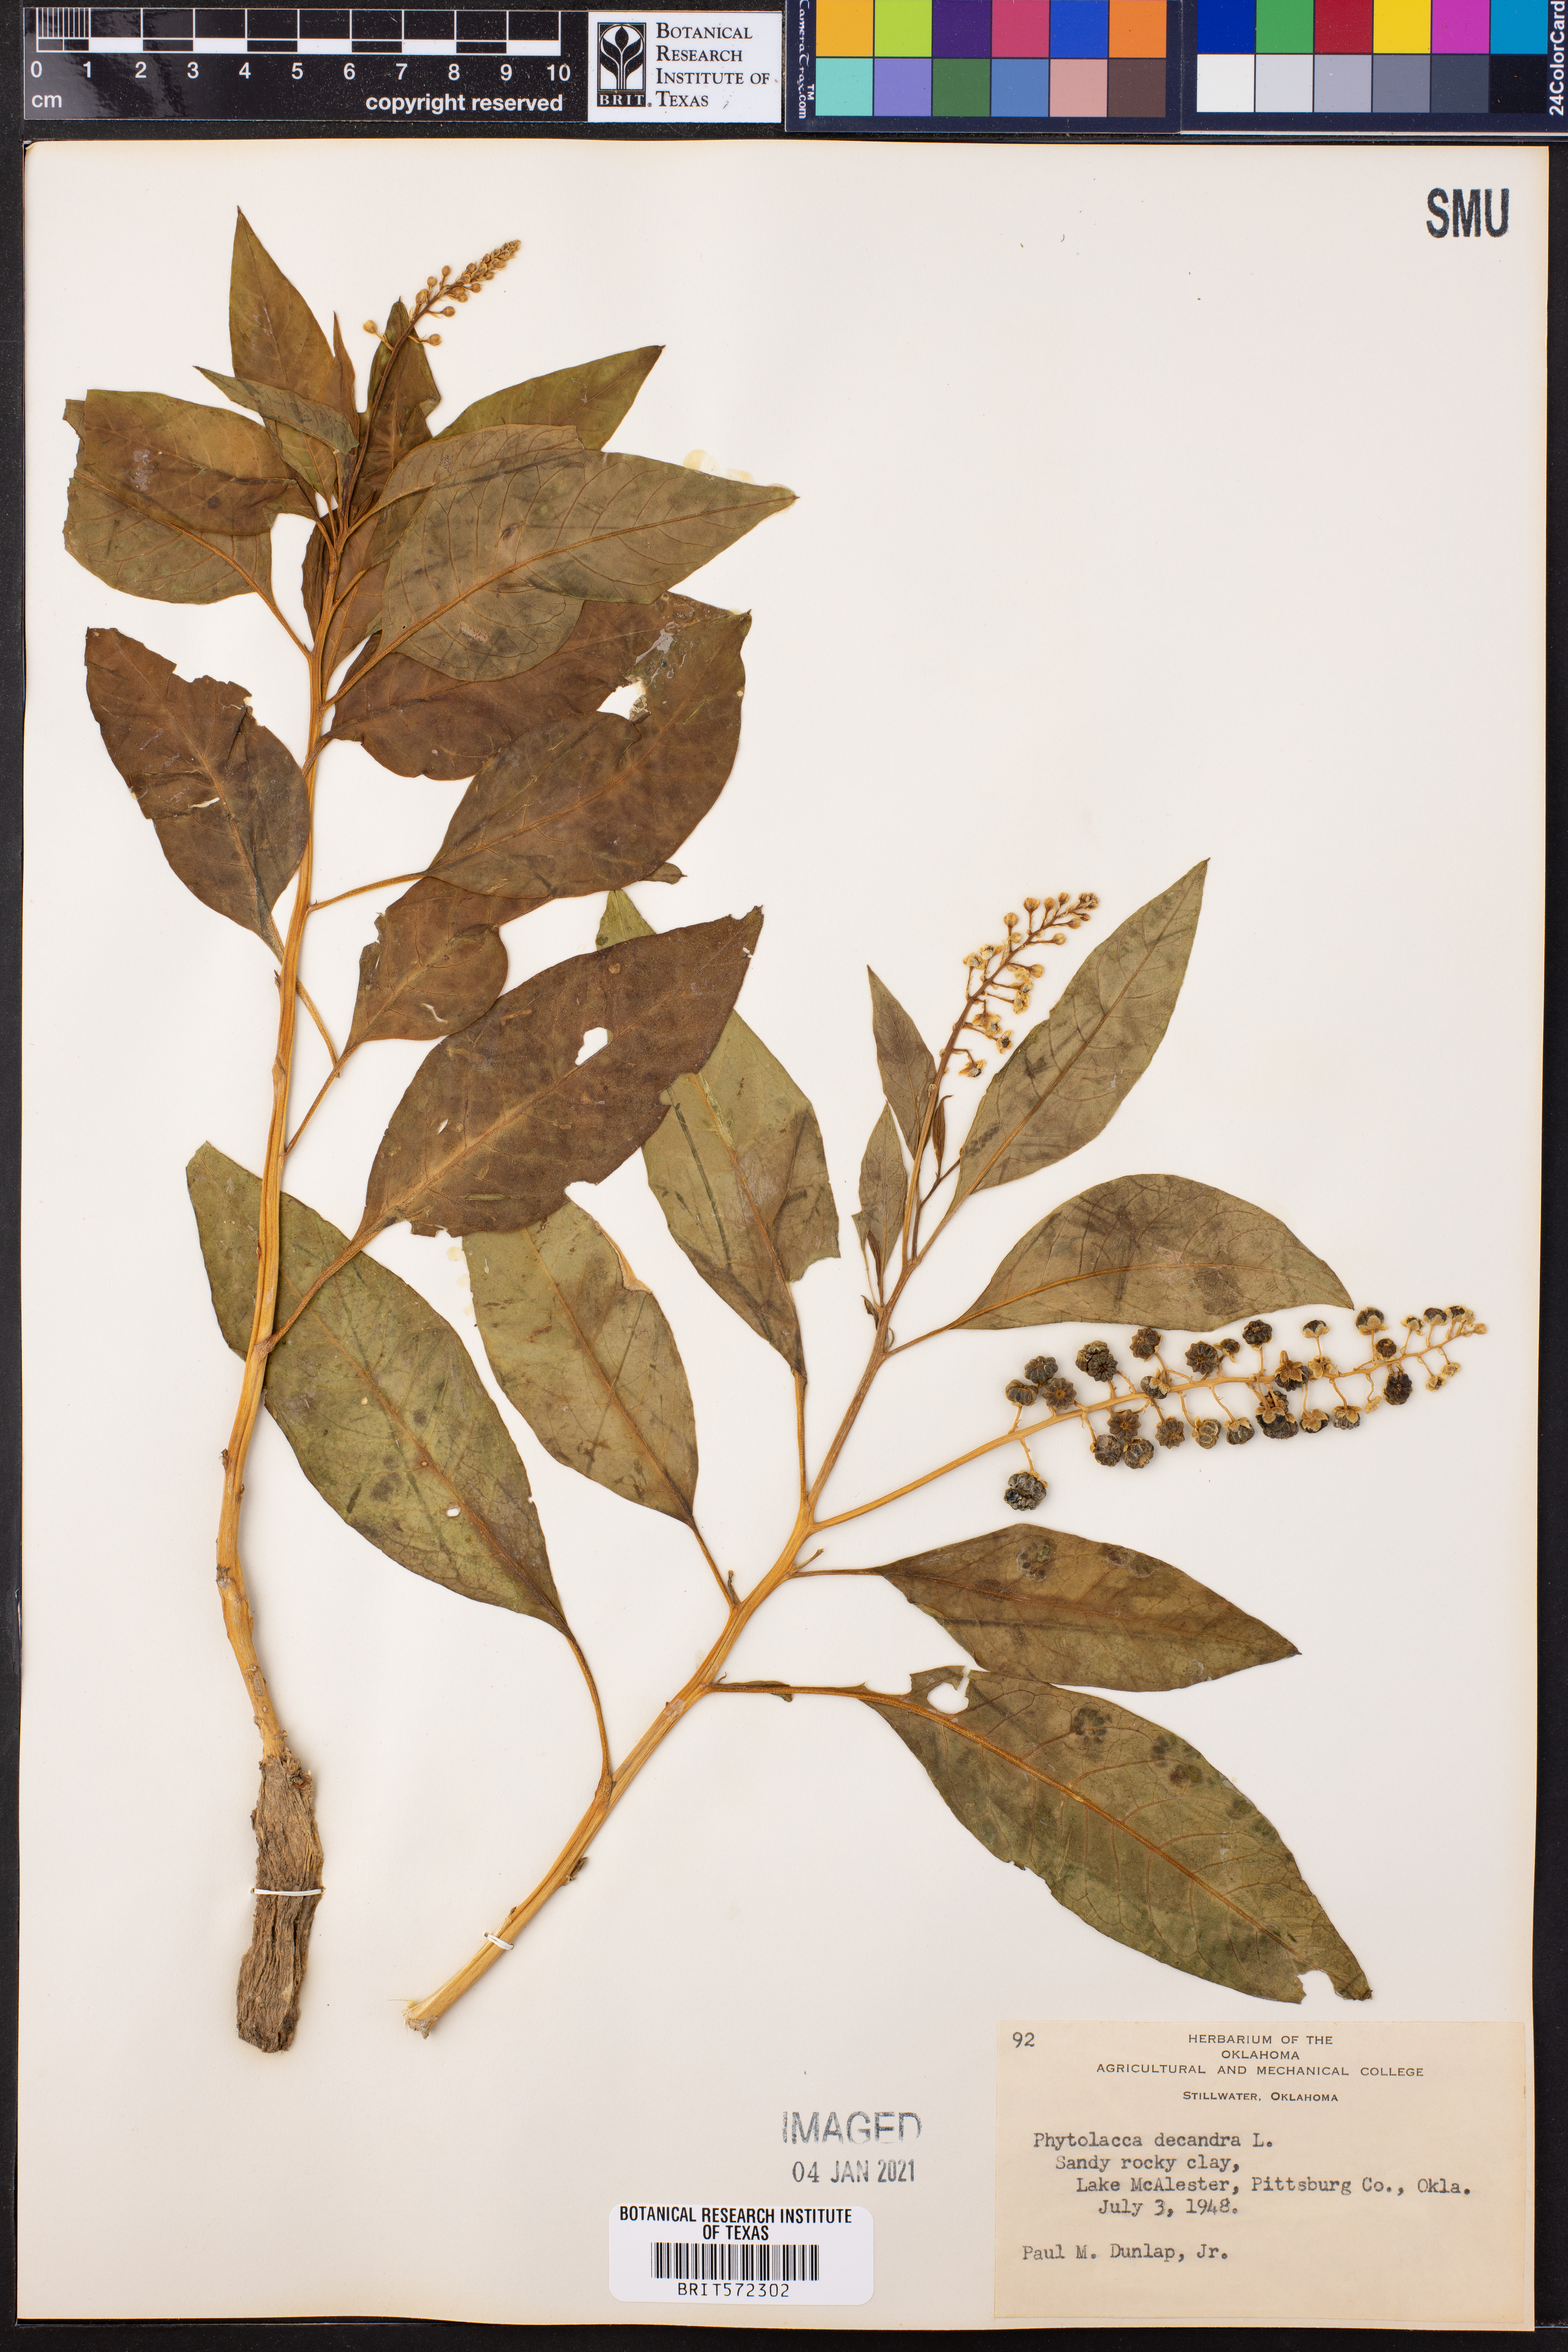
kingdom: Plantae
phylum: Tracheophyta
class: Magnoliopsida
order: Caryophyllales
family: Phytolaccaceae
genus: Phytolacca
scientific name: Phytolacca americana
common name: American pokeweed
